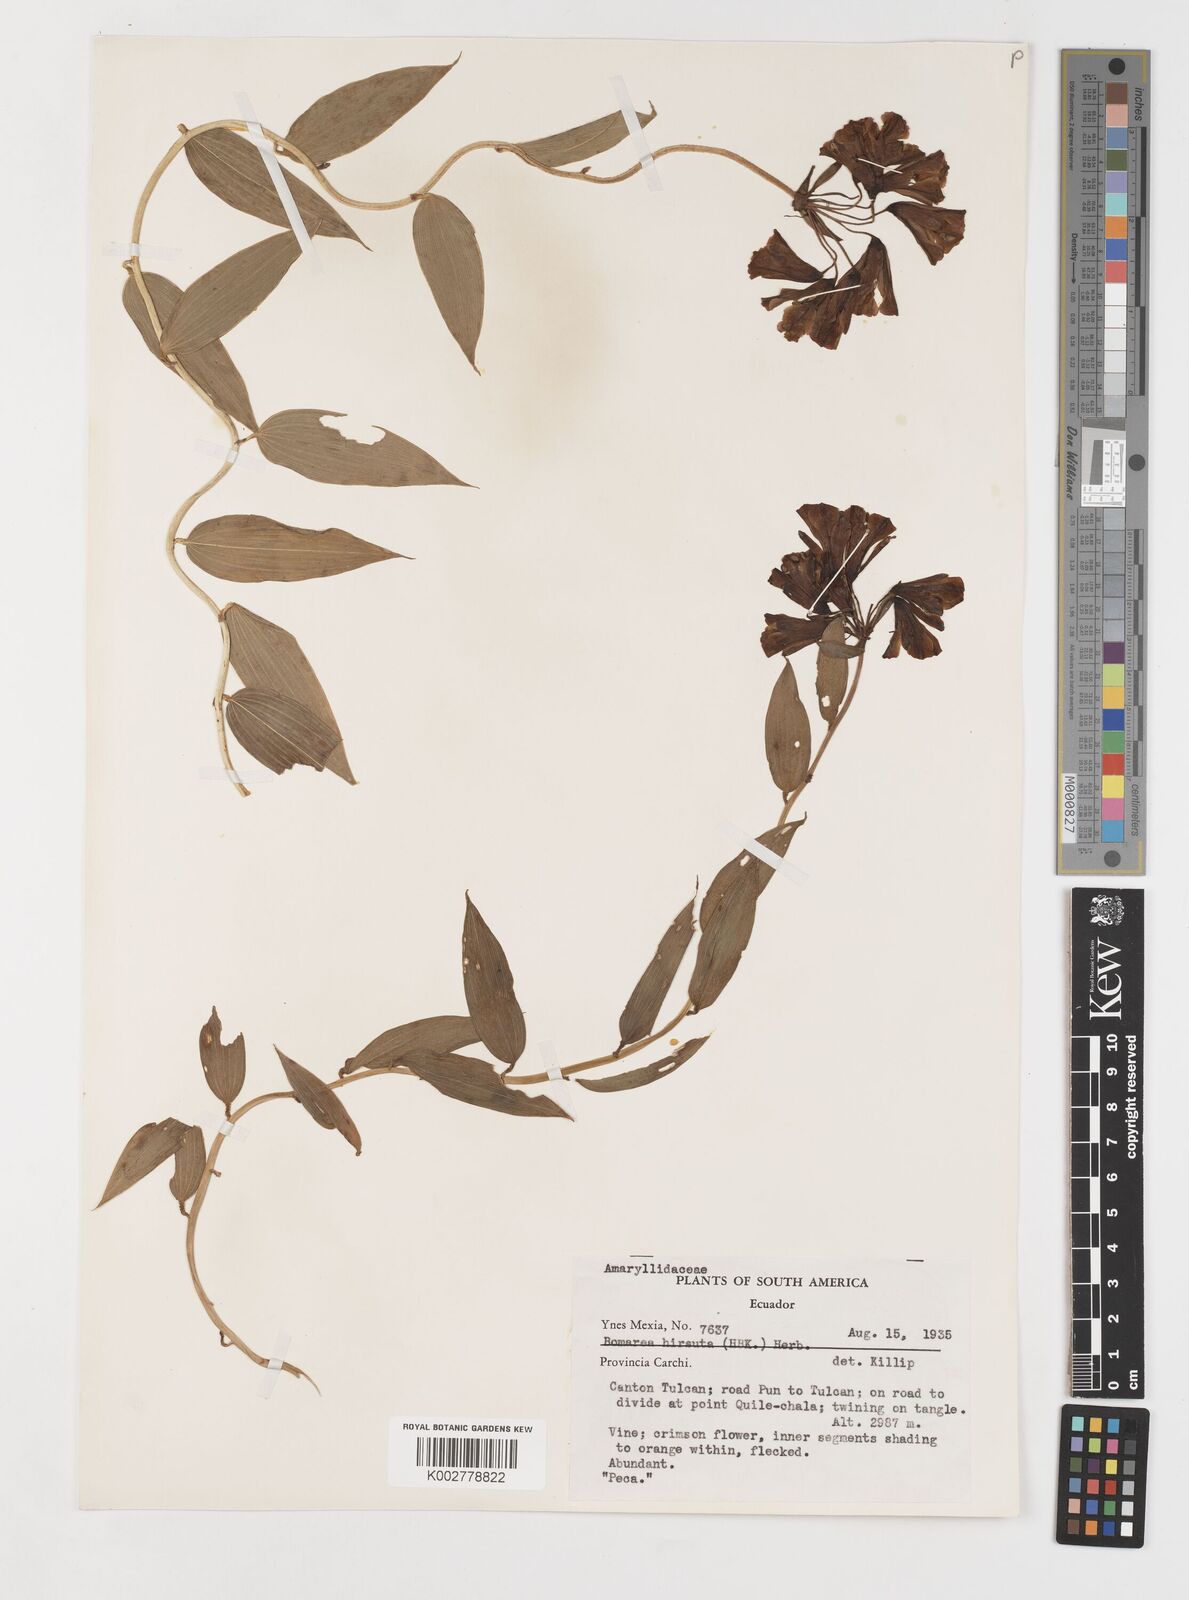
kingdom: Plantae
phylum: Tracheophyta
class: Liliopsida
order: Liliales
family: Alstroemeriaceae
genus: Bomarea
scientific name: Bomarea hirsuta
